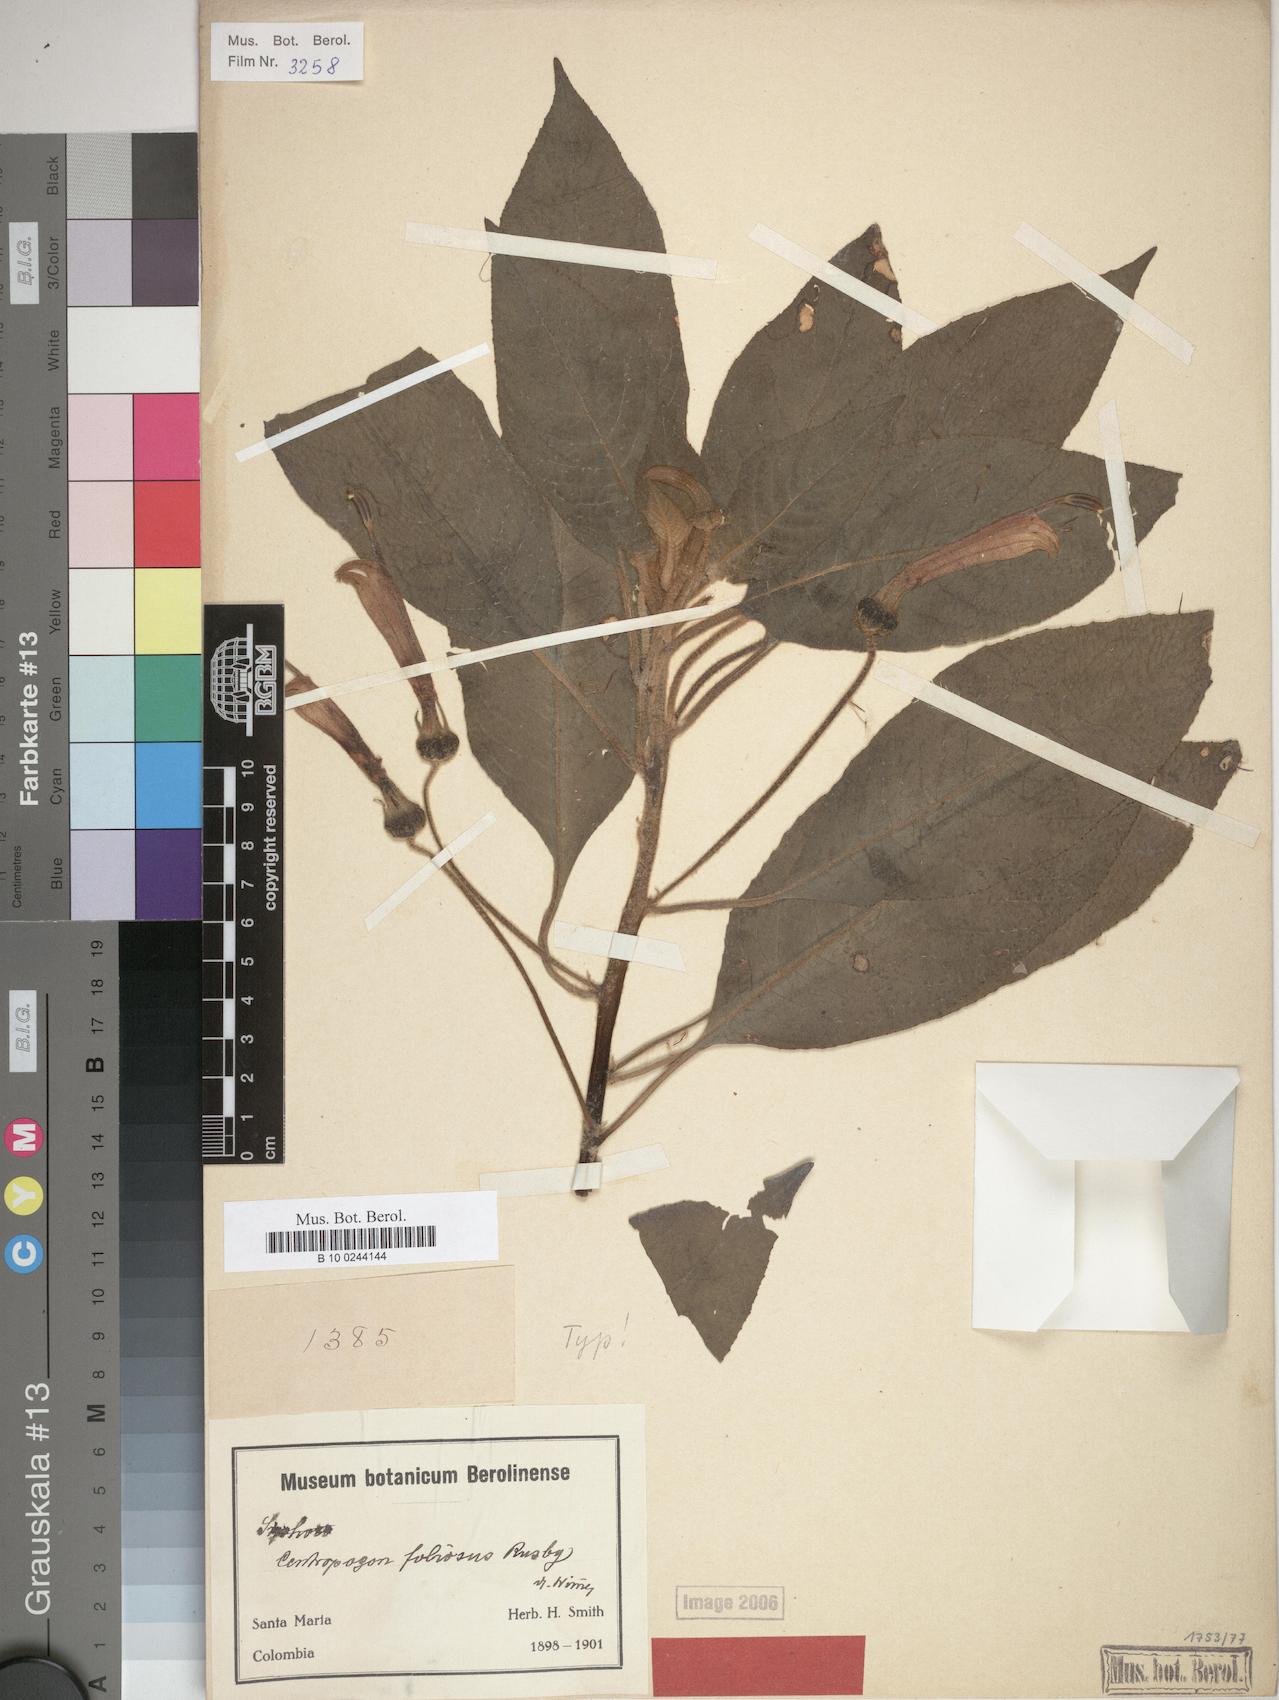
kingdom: Plantae
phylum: Tracheophyta
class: Magnoliopsida
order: Asterales
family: Campanulaceae
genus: Centropogon
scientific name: Centropogon foliosus
